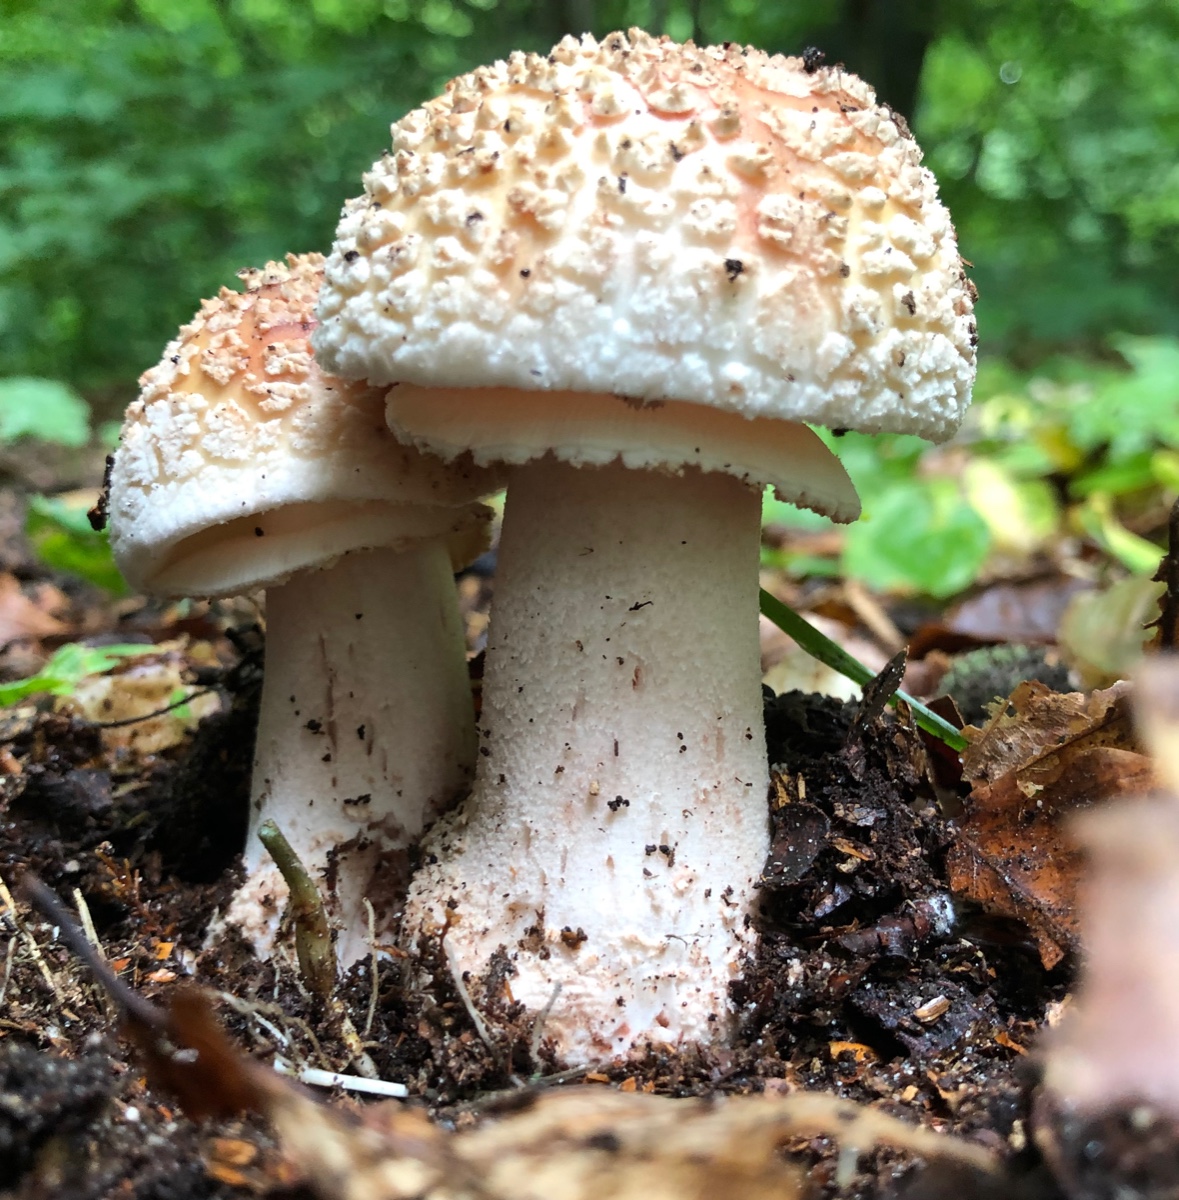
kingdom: Fungi
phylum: Basidiomycota
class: Agaricomycetes
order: Agaricales
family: Amanitaceae
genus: Amanita
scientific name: Amanita rubescens
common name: rødmende fluesvamp
